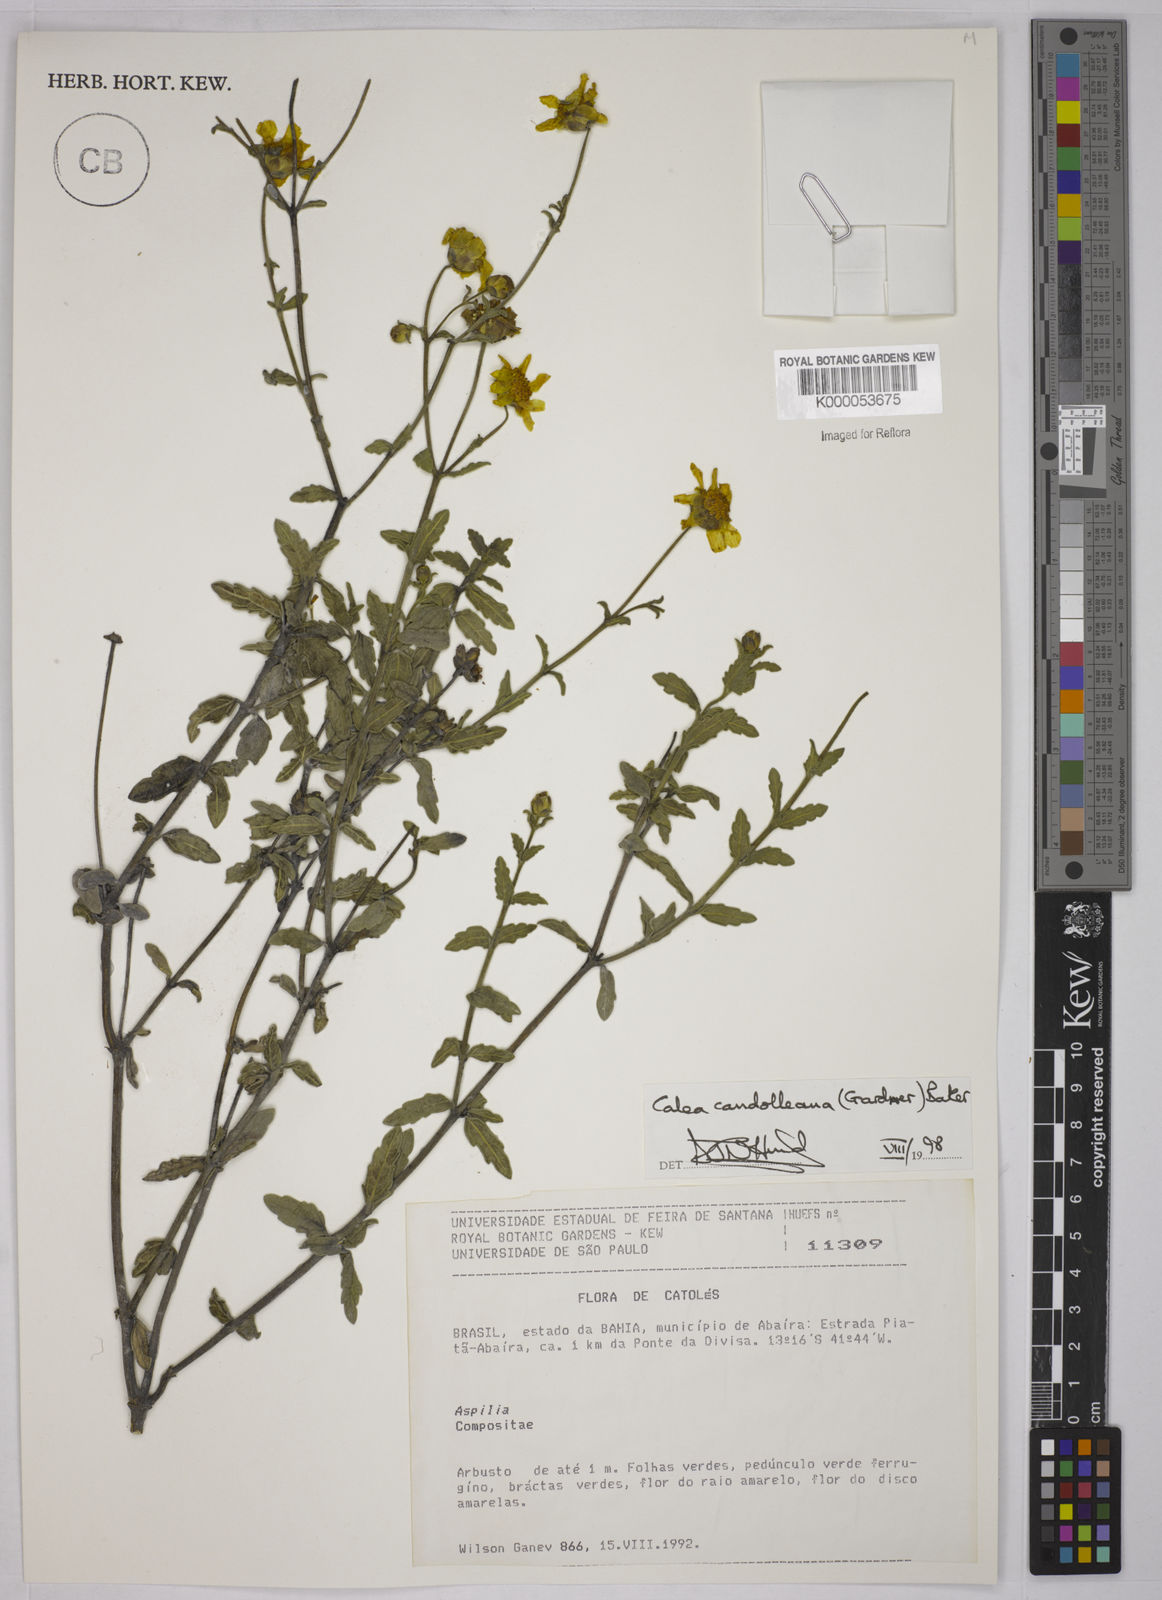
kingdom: Plantae
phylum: Tracheophyta
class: Magnoliopsida
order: Asterales
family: Asteraceae
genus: Calea
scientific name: Calea candolleana
